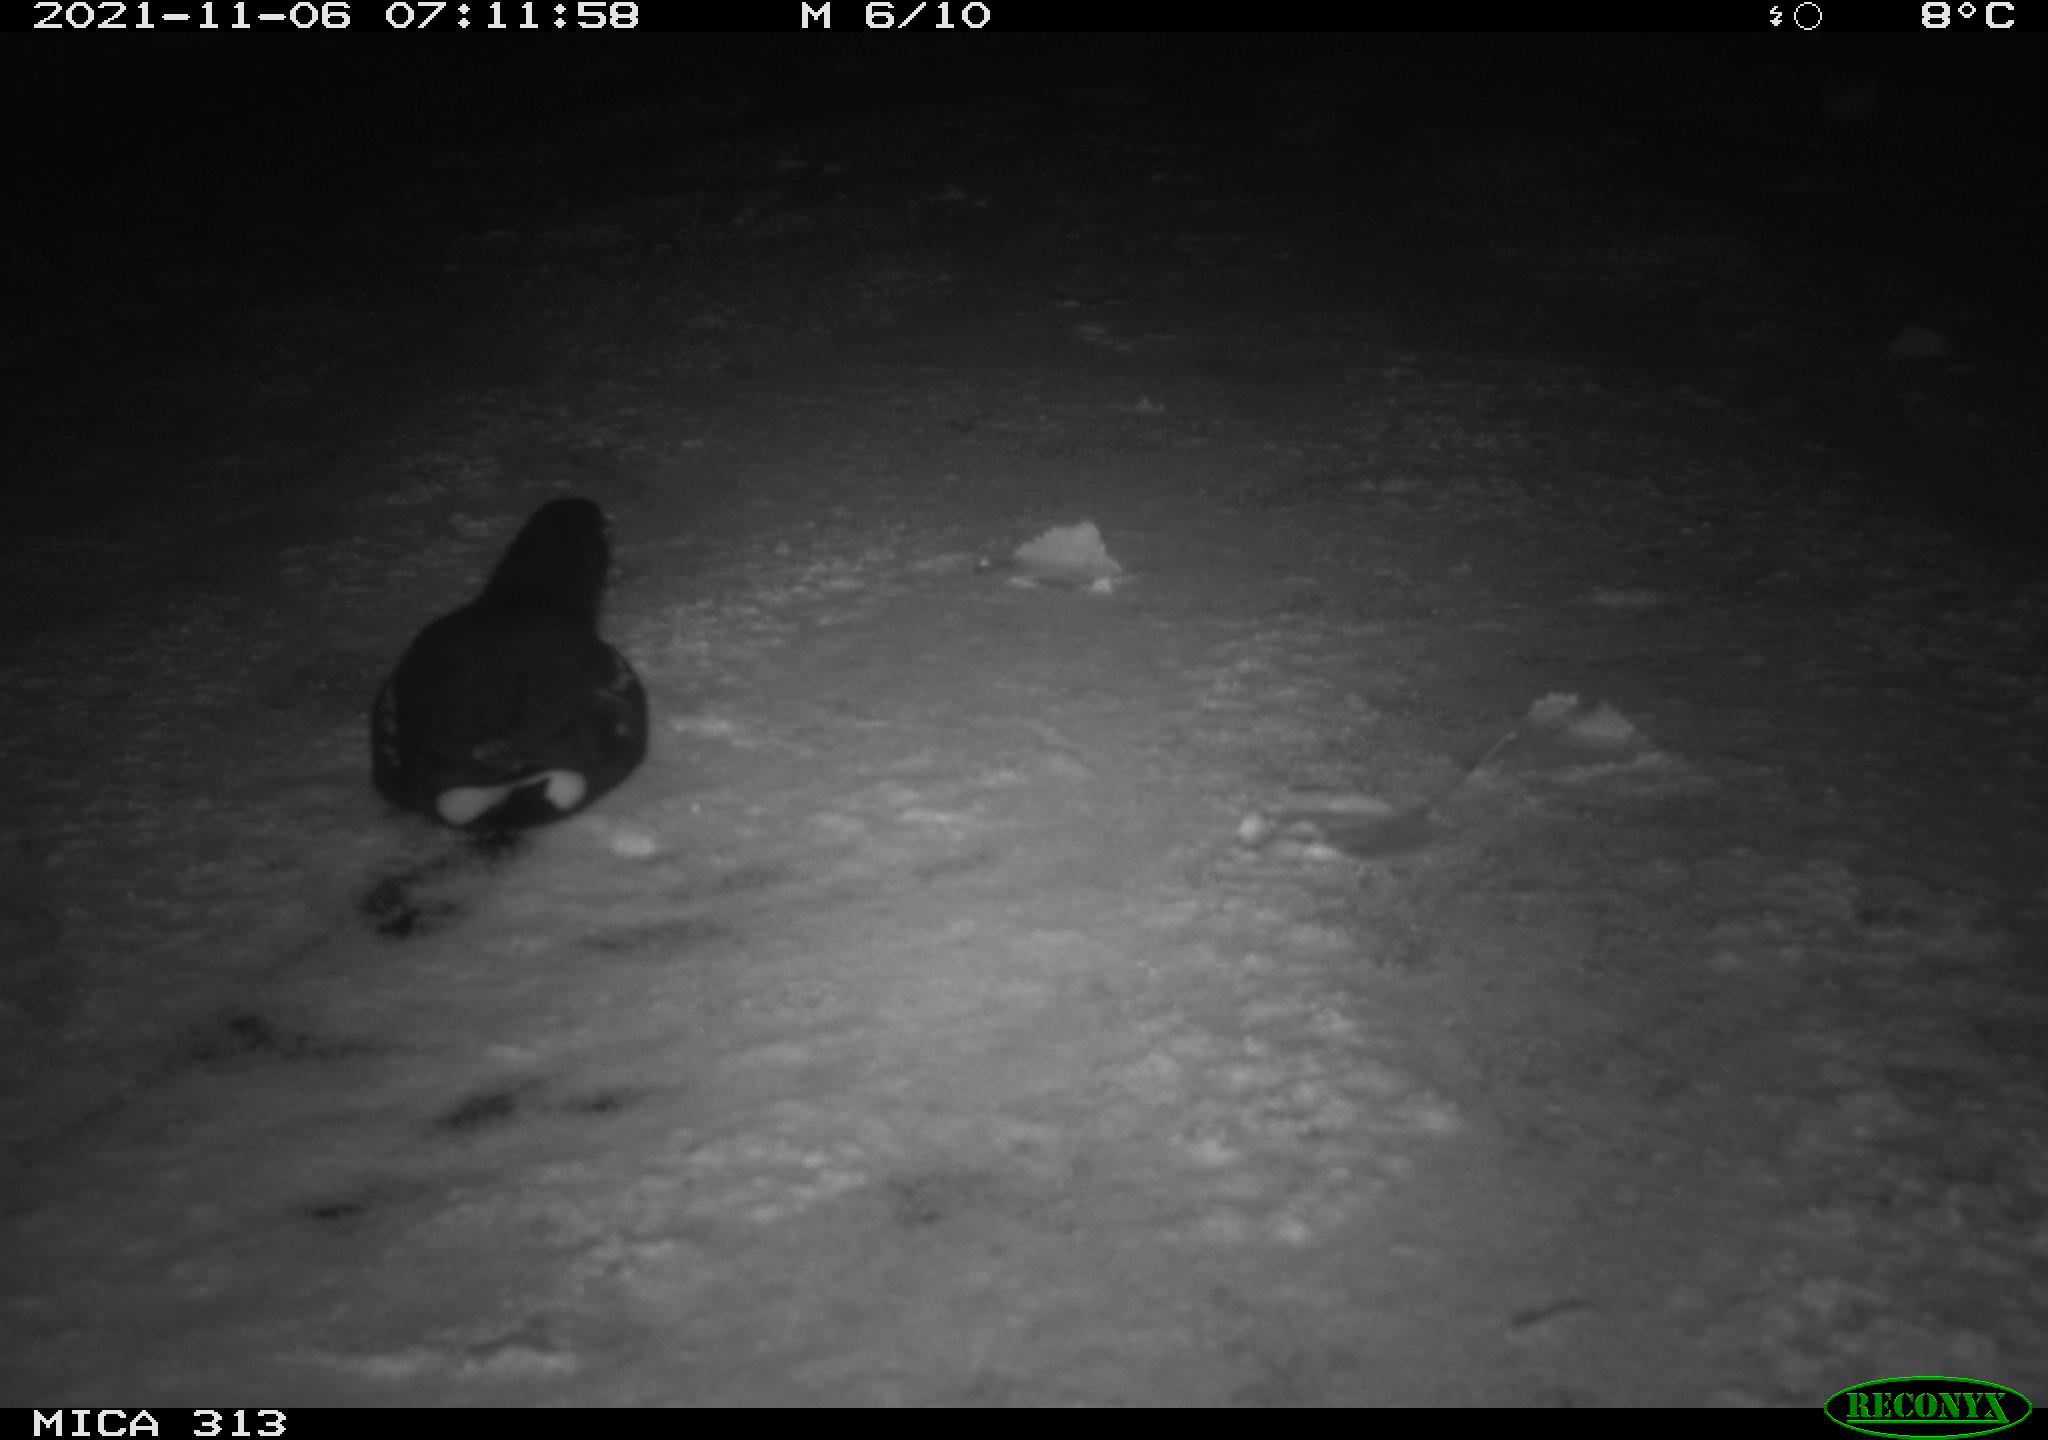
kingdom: Animalia
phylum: Chordata
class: Aves
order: Gruiformes
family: Rallidae
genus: Gallinula
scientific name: Gallinula chloropus
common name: Common moorhen
